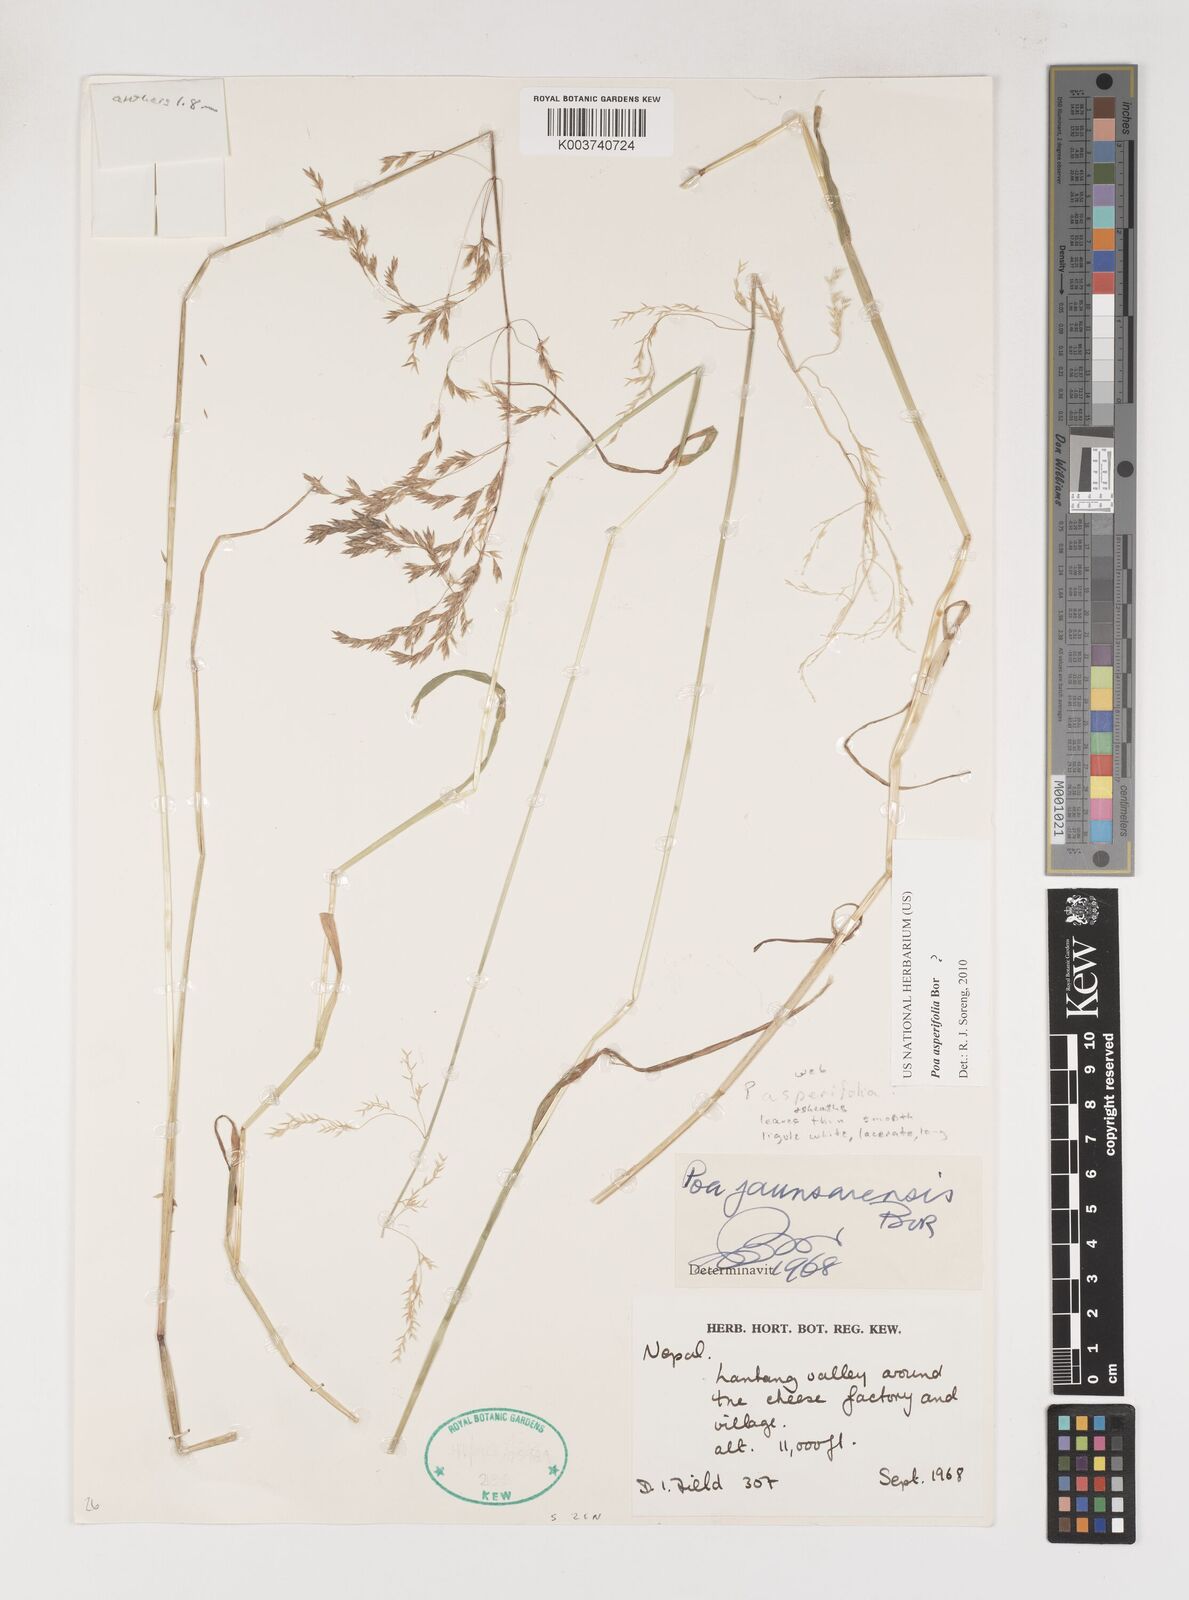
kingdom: Plantae
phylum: Tracheophyta
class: Liliopsida
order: Poales
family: Poaceae
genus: Poa
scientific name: Poa asperifolia
